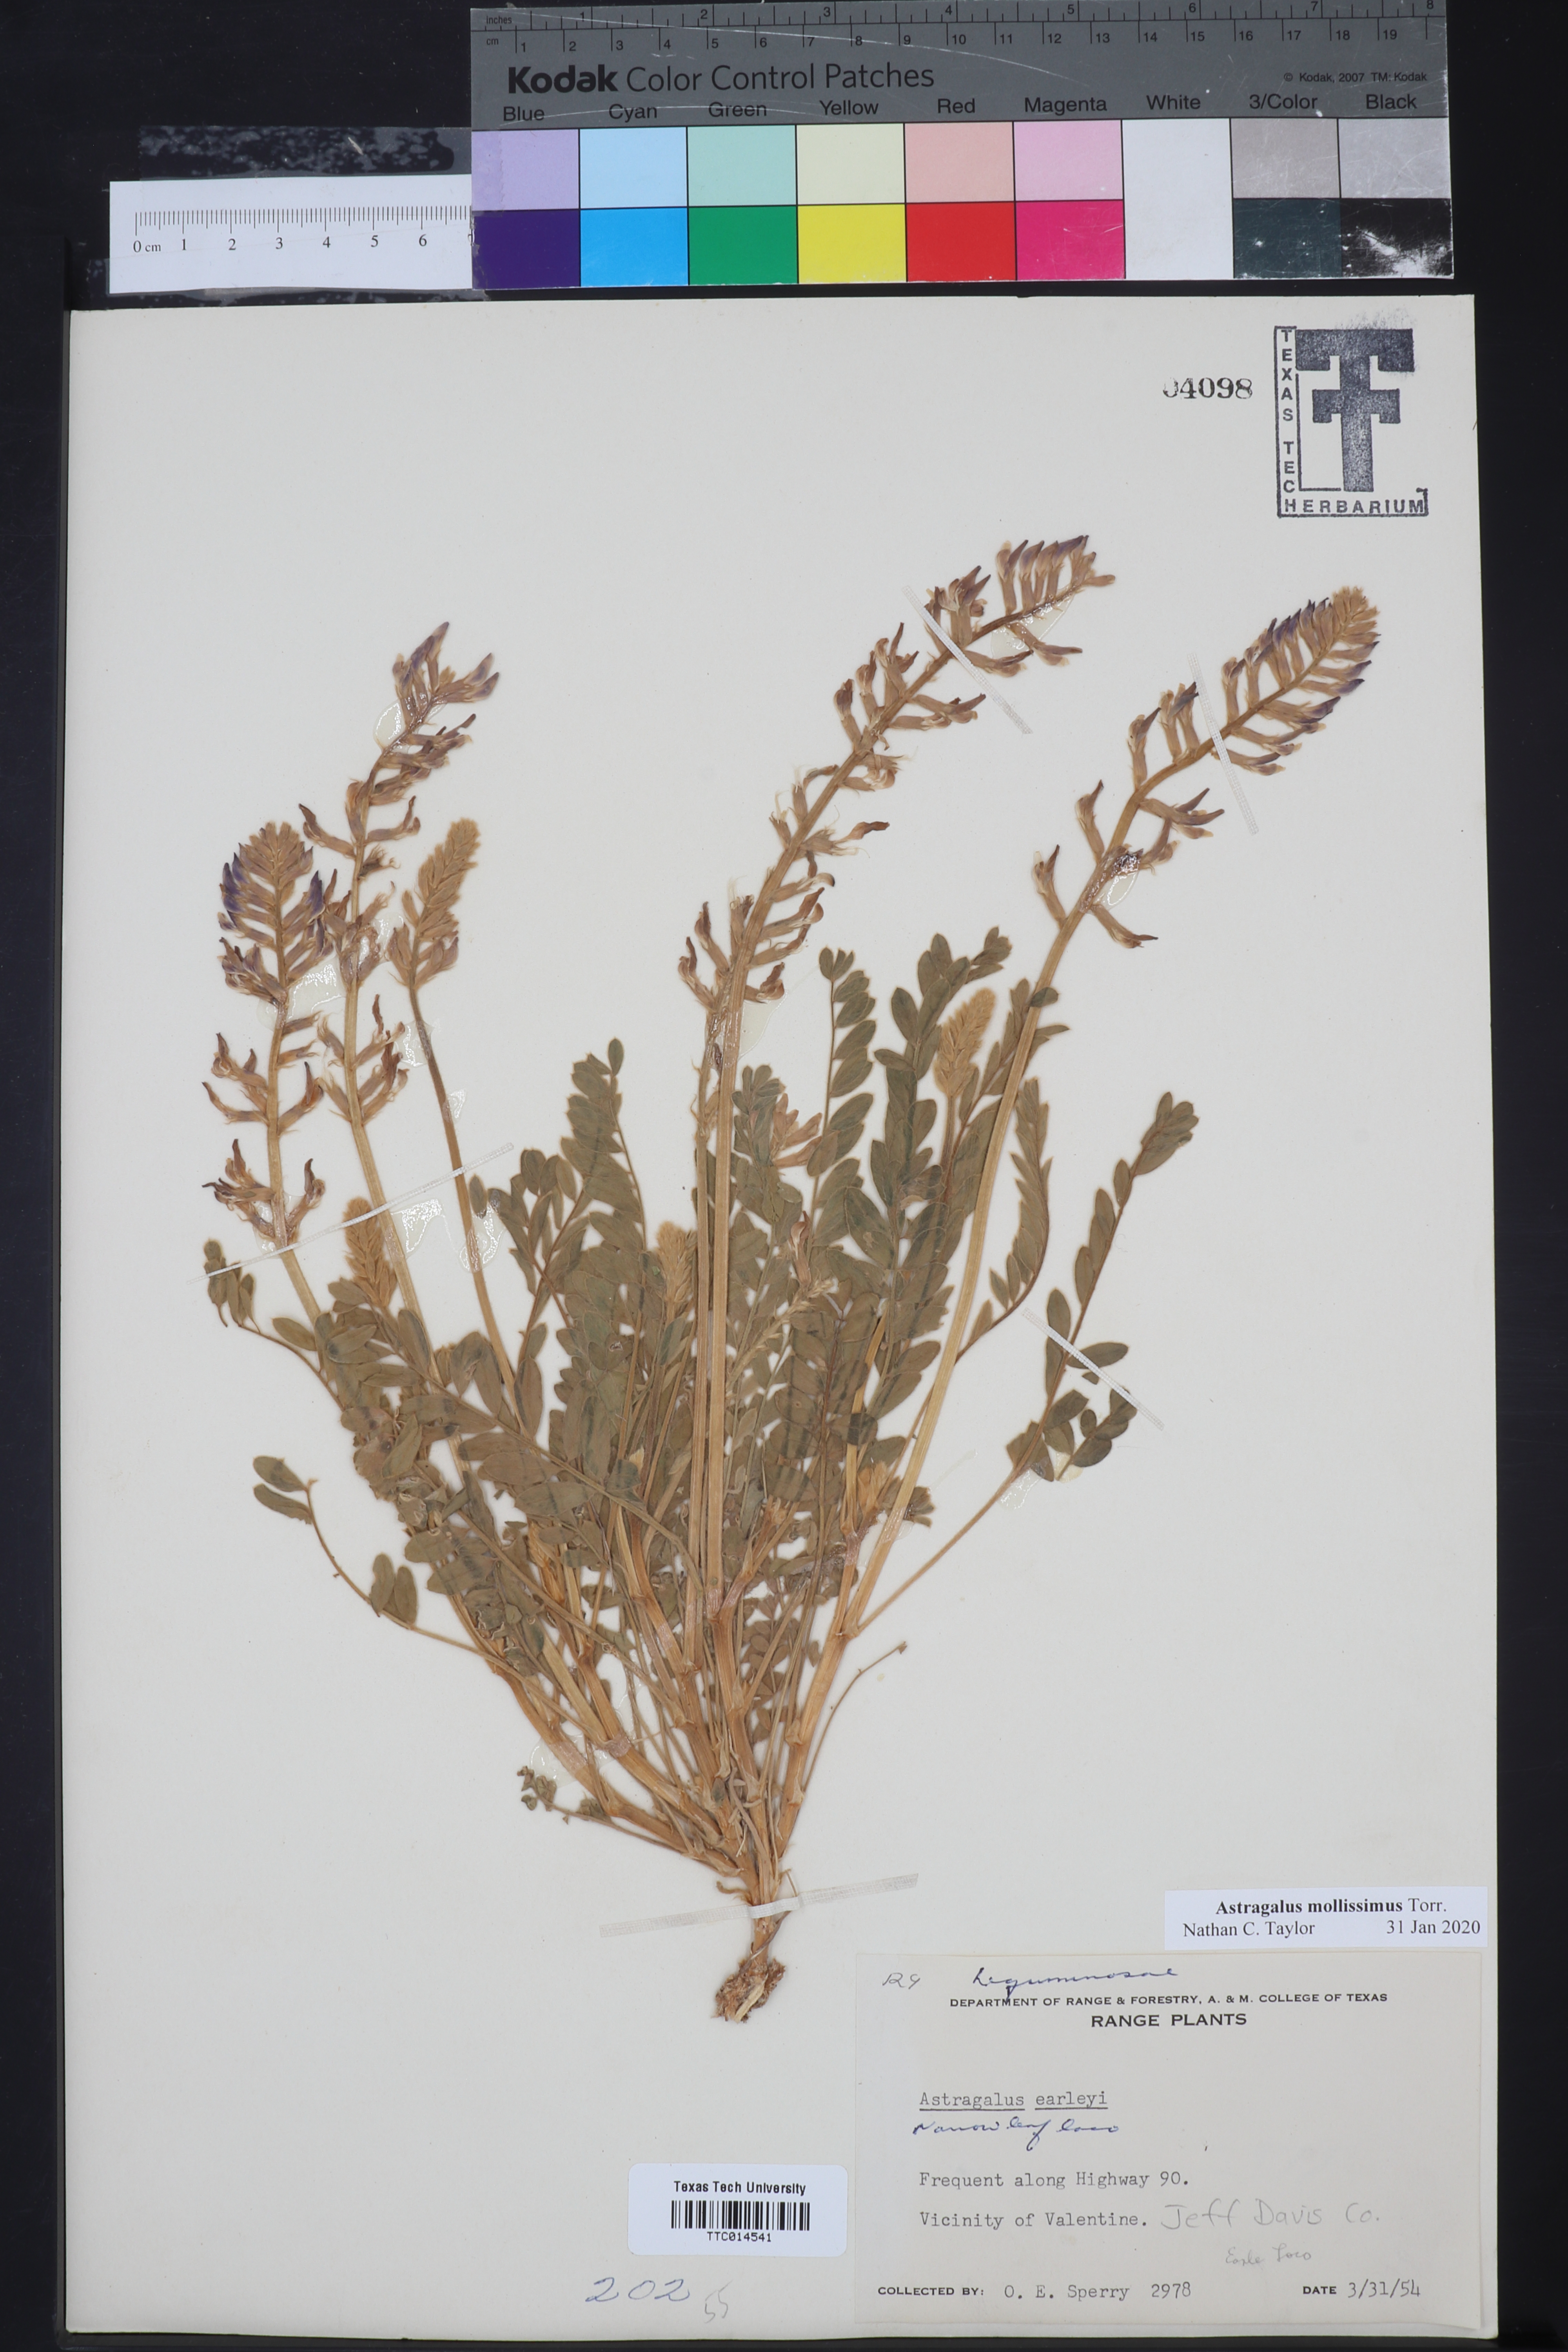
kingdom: Plantae
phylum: Tracheophyta
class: Magnoliopsida
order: Fabales
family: Fabaceae
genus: Astragalus
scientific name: Astragalus mollissimus
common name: Woolly locoweed
